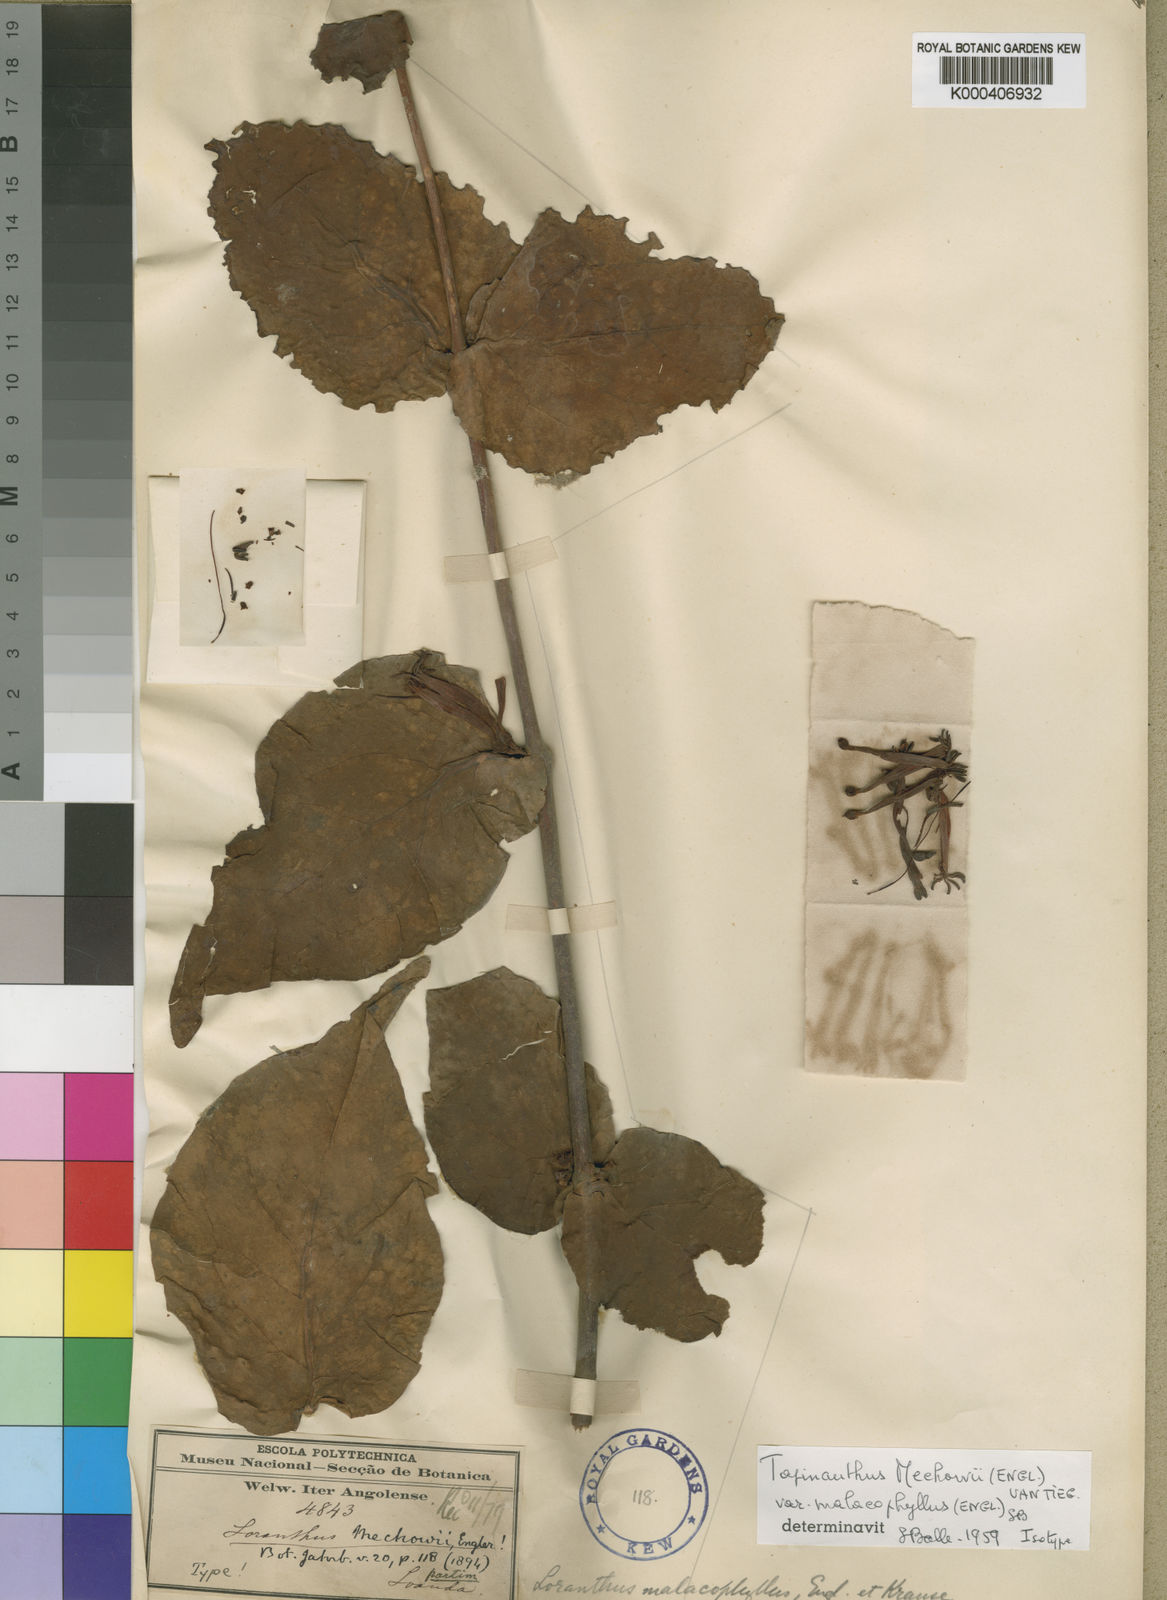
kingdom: Plantae
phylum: Tracheophyta
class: Magnoliopsida
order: Santalales
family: Loranthaceae
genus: Tapinanthus
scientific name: Tapinanthus malacophyllus
